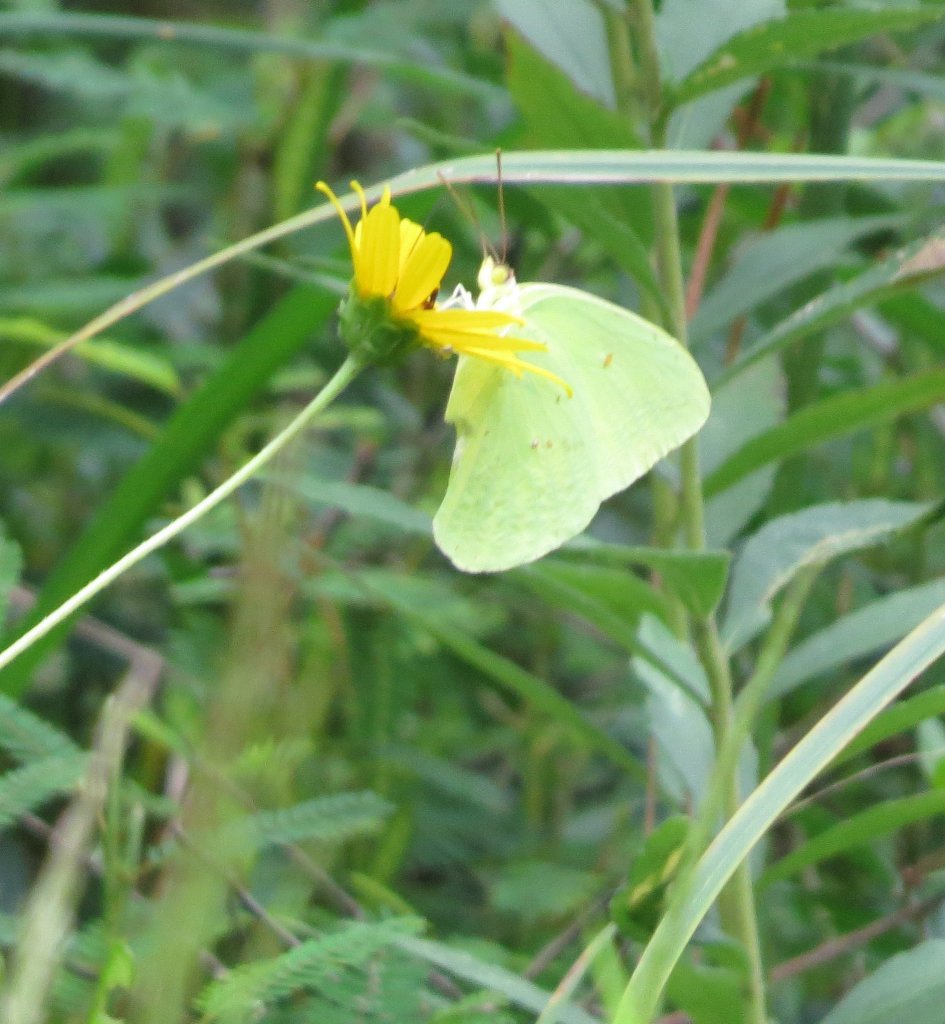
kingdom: Animalia
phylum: Arthropoda
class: Insecta
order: Lepidoptera
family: Pieridae
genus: Phoebis
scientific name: Phoebis sennae
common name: Cloudless Sulphur
